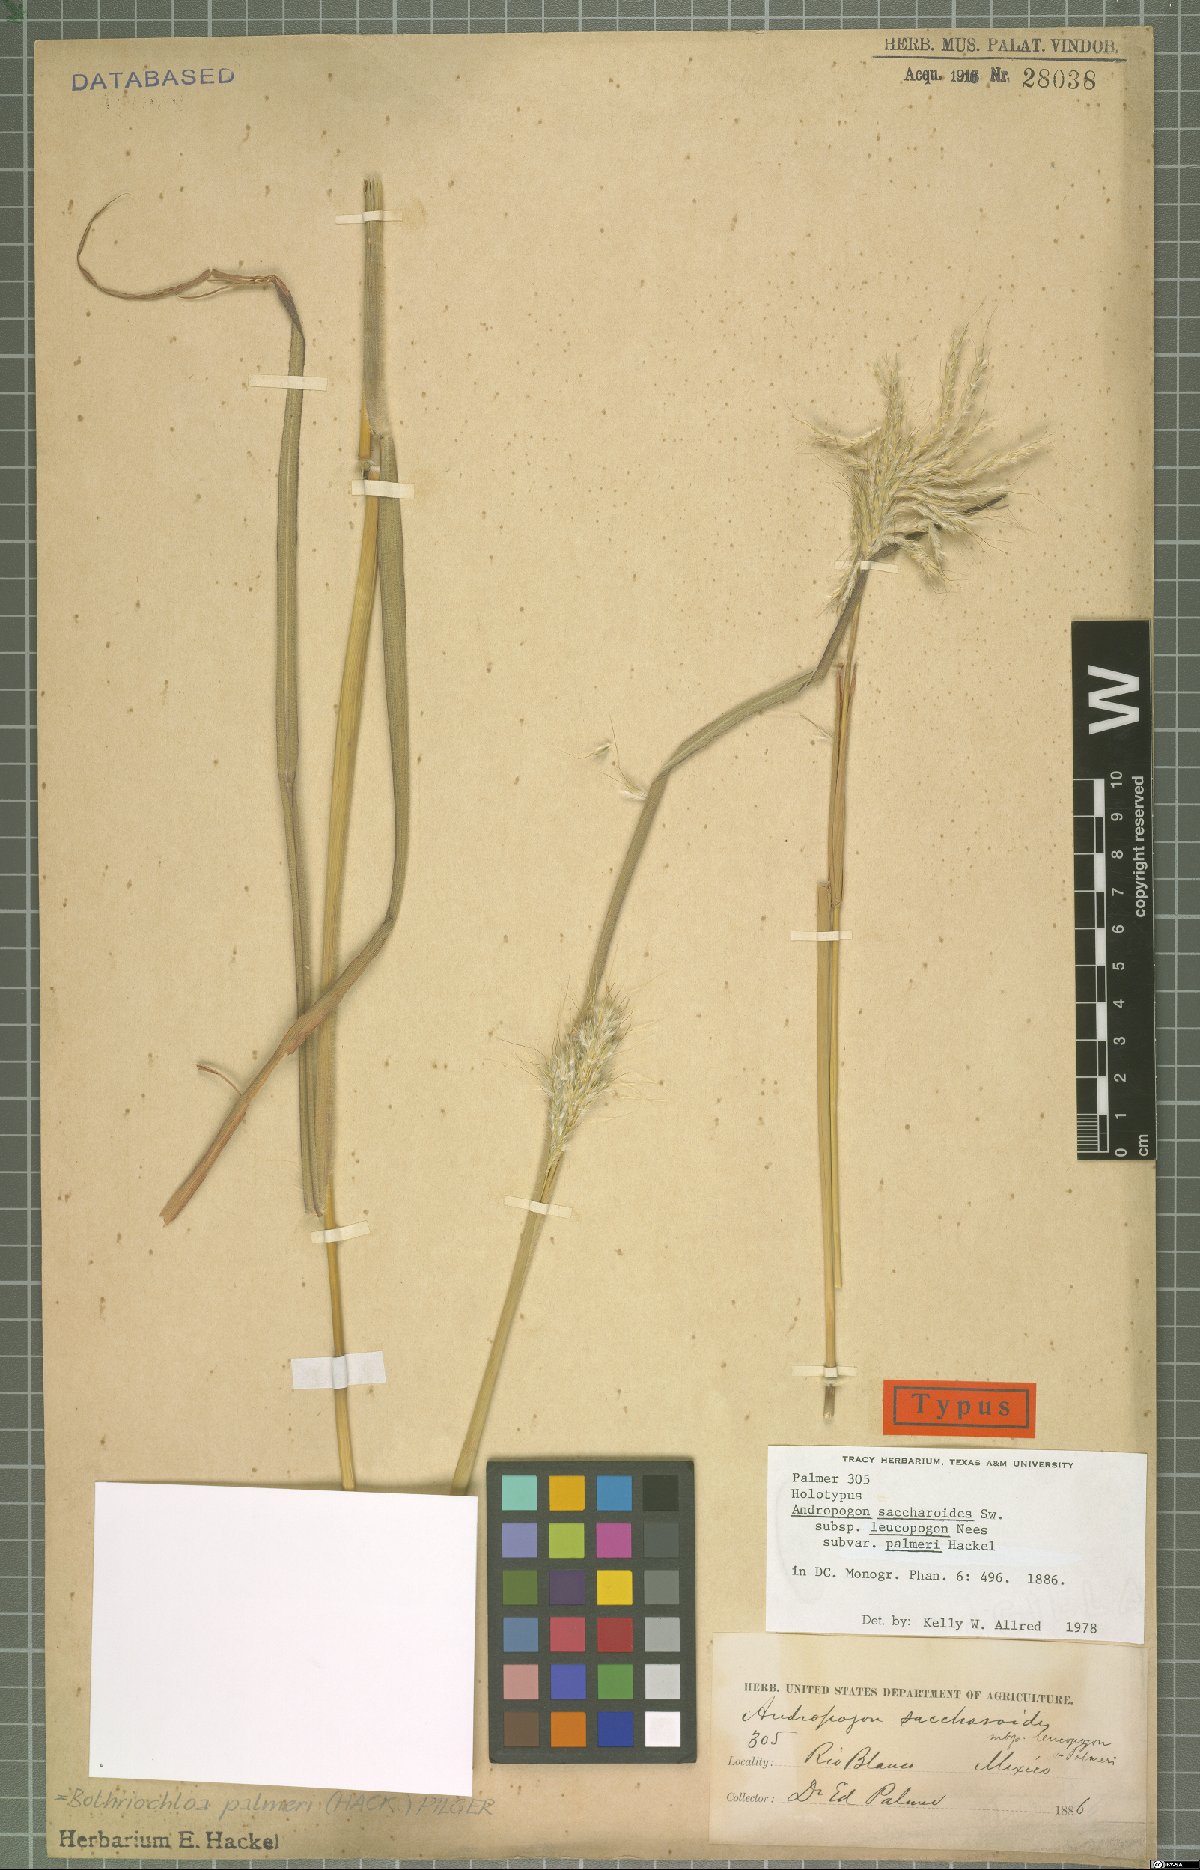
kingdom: Plantae
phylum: Tracheophyta
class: Liliopsida
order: Poales
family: Poaceae
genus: Bothriochloa
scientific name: Bothriochloa barbinodis
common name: Cane bluestem
